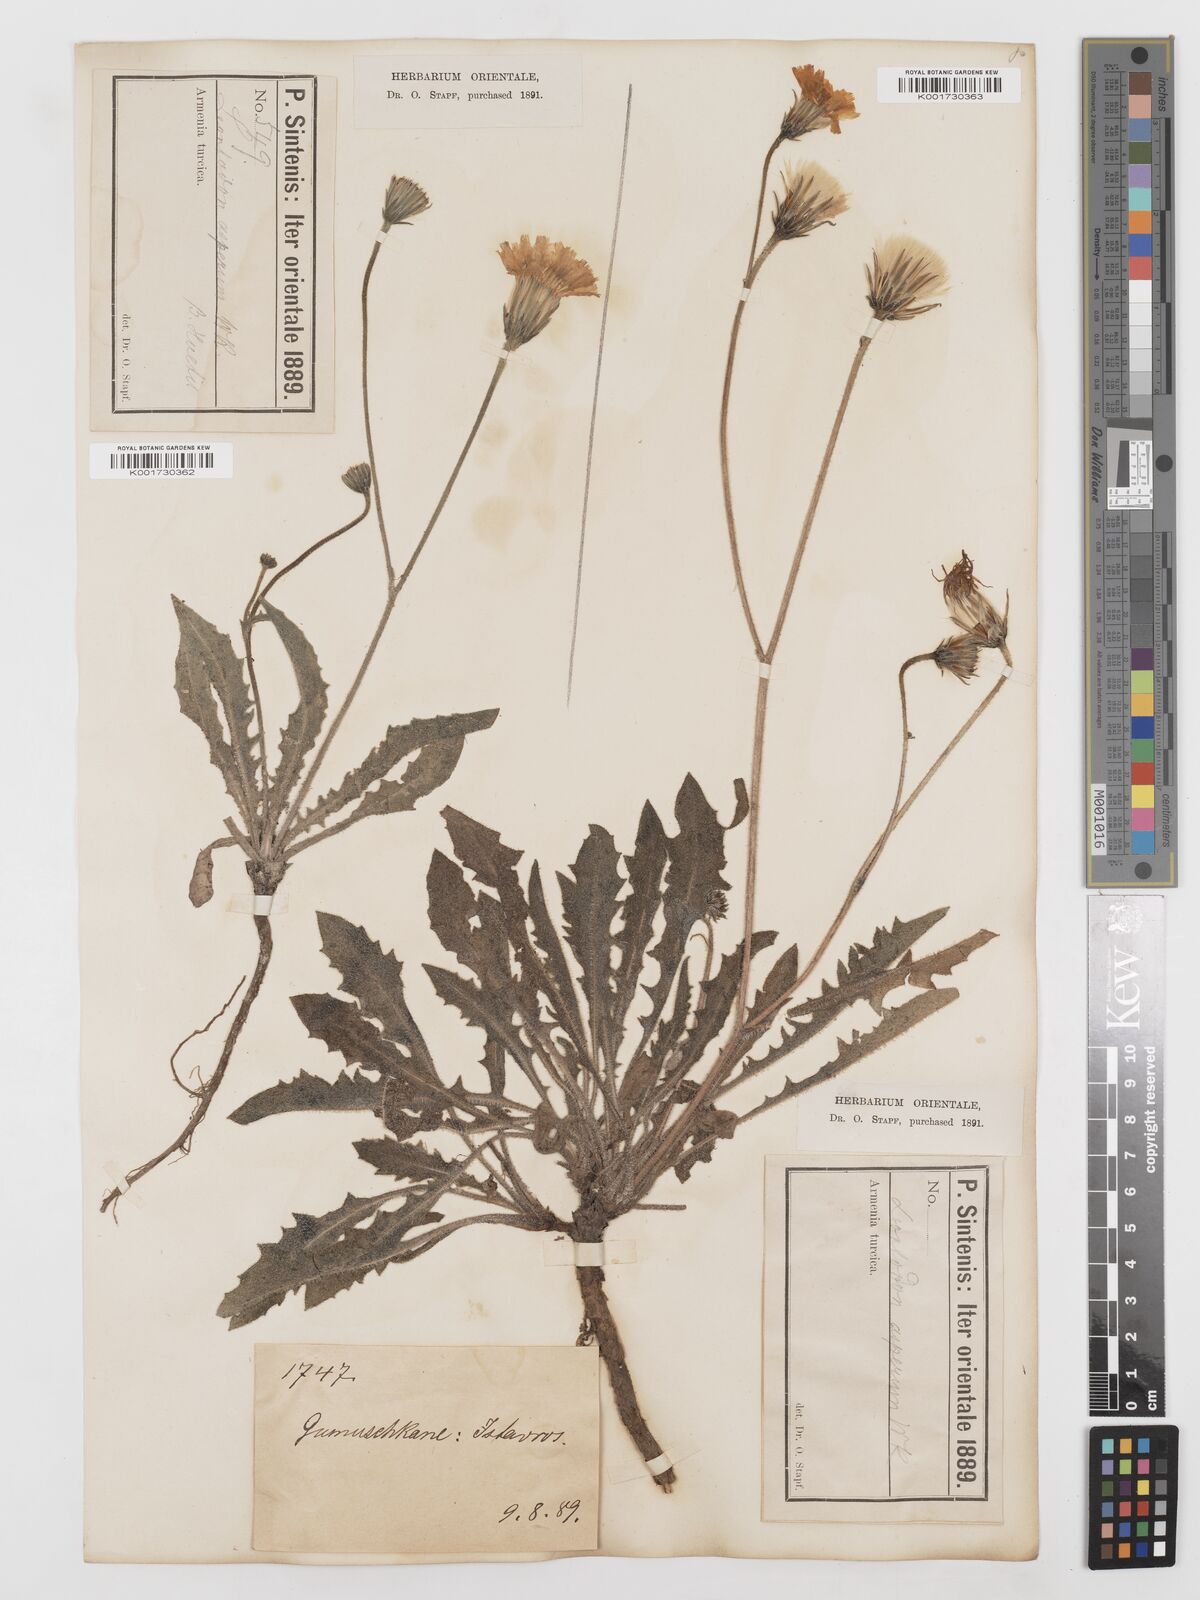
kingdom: Plantae
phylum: Tracheophyta
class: Magnoliopsida
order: Asterales
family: Asteraceae
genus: Leontodon
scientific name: Leontodon
